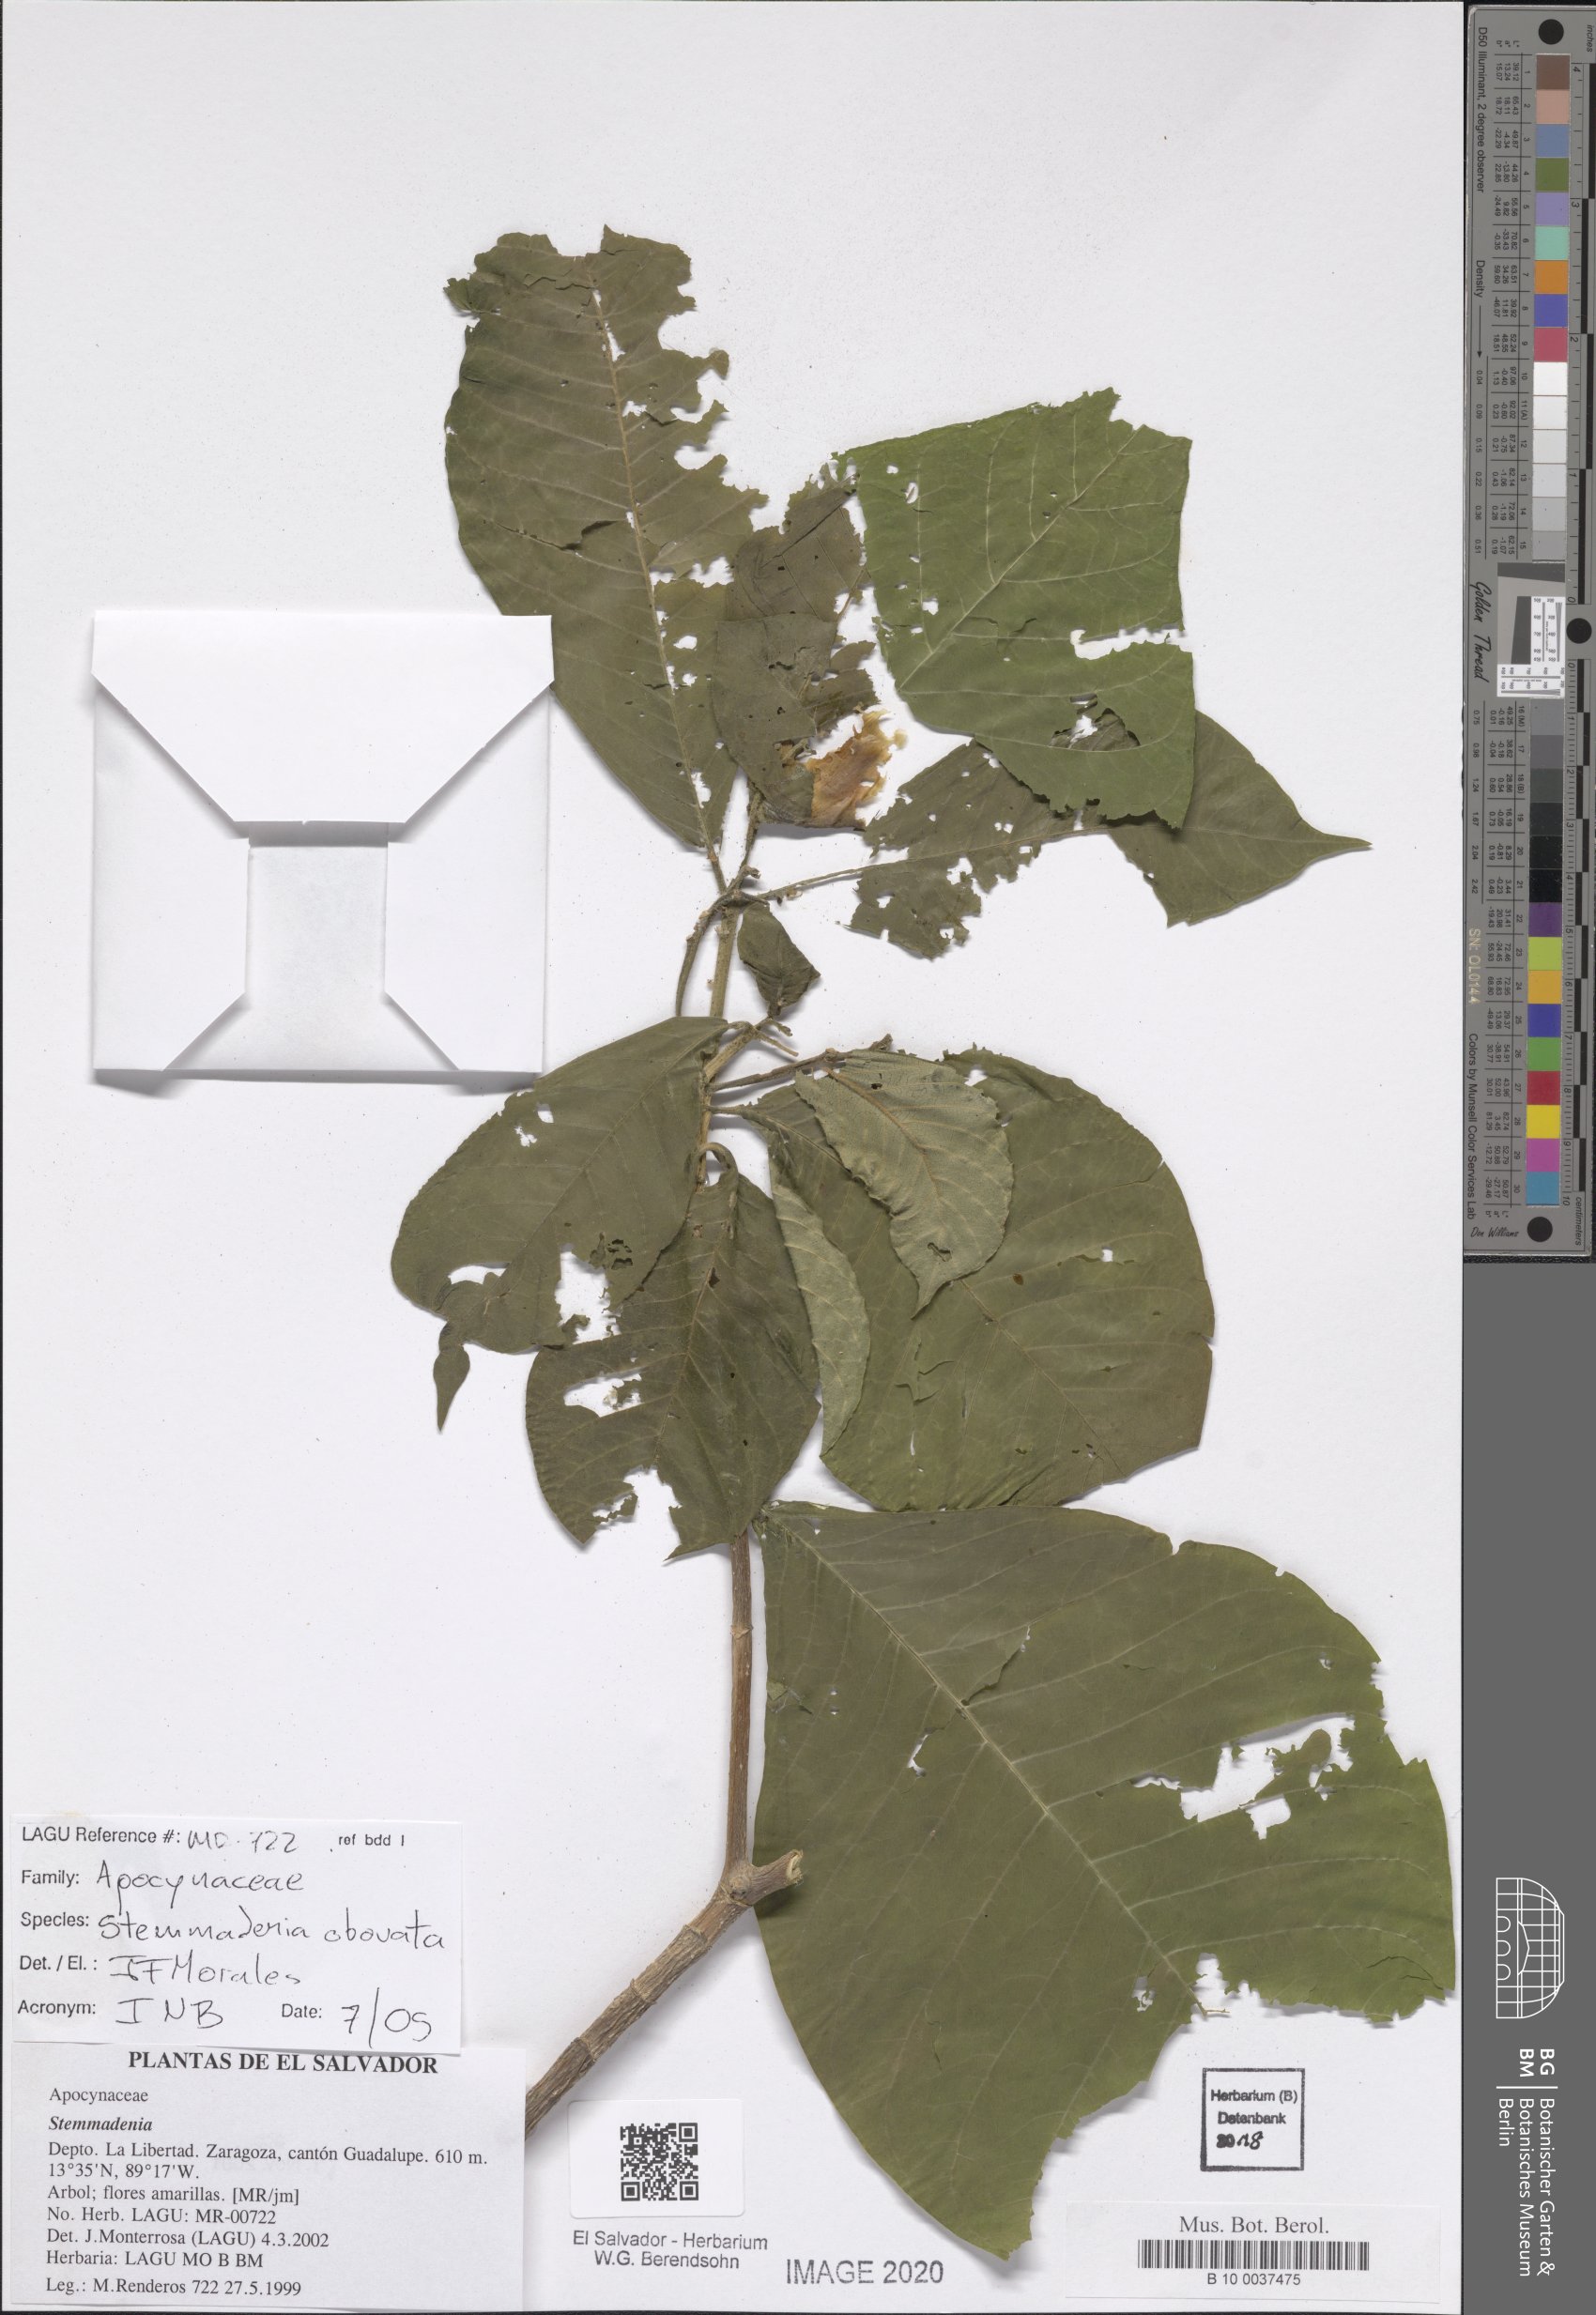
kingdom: Plantae
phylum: Tracheophyta
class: Magnoliopsida
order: Gentianales
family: Apocynaceae
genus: Tabernaemontana
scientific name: Tabernaemontana glabra
